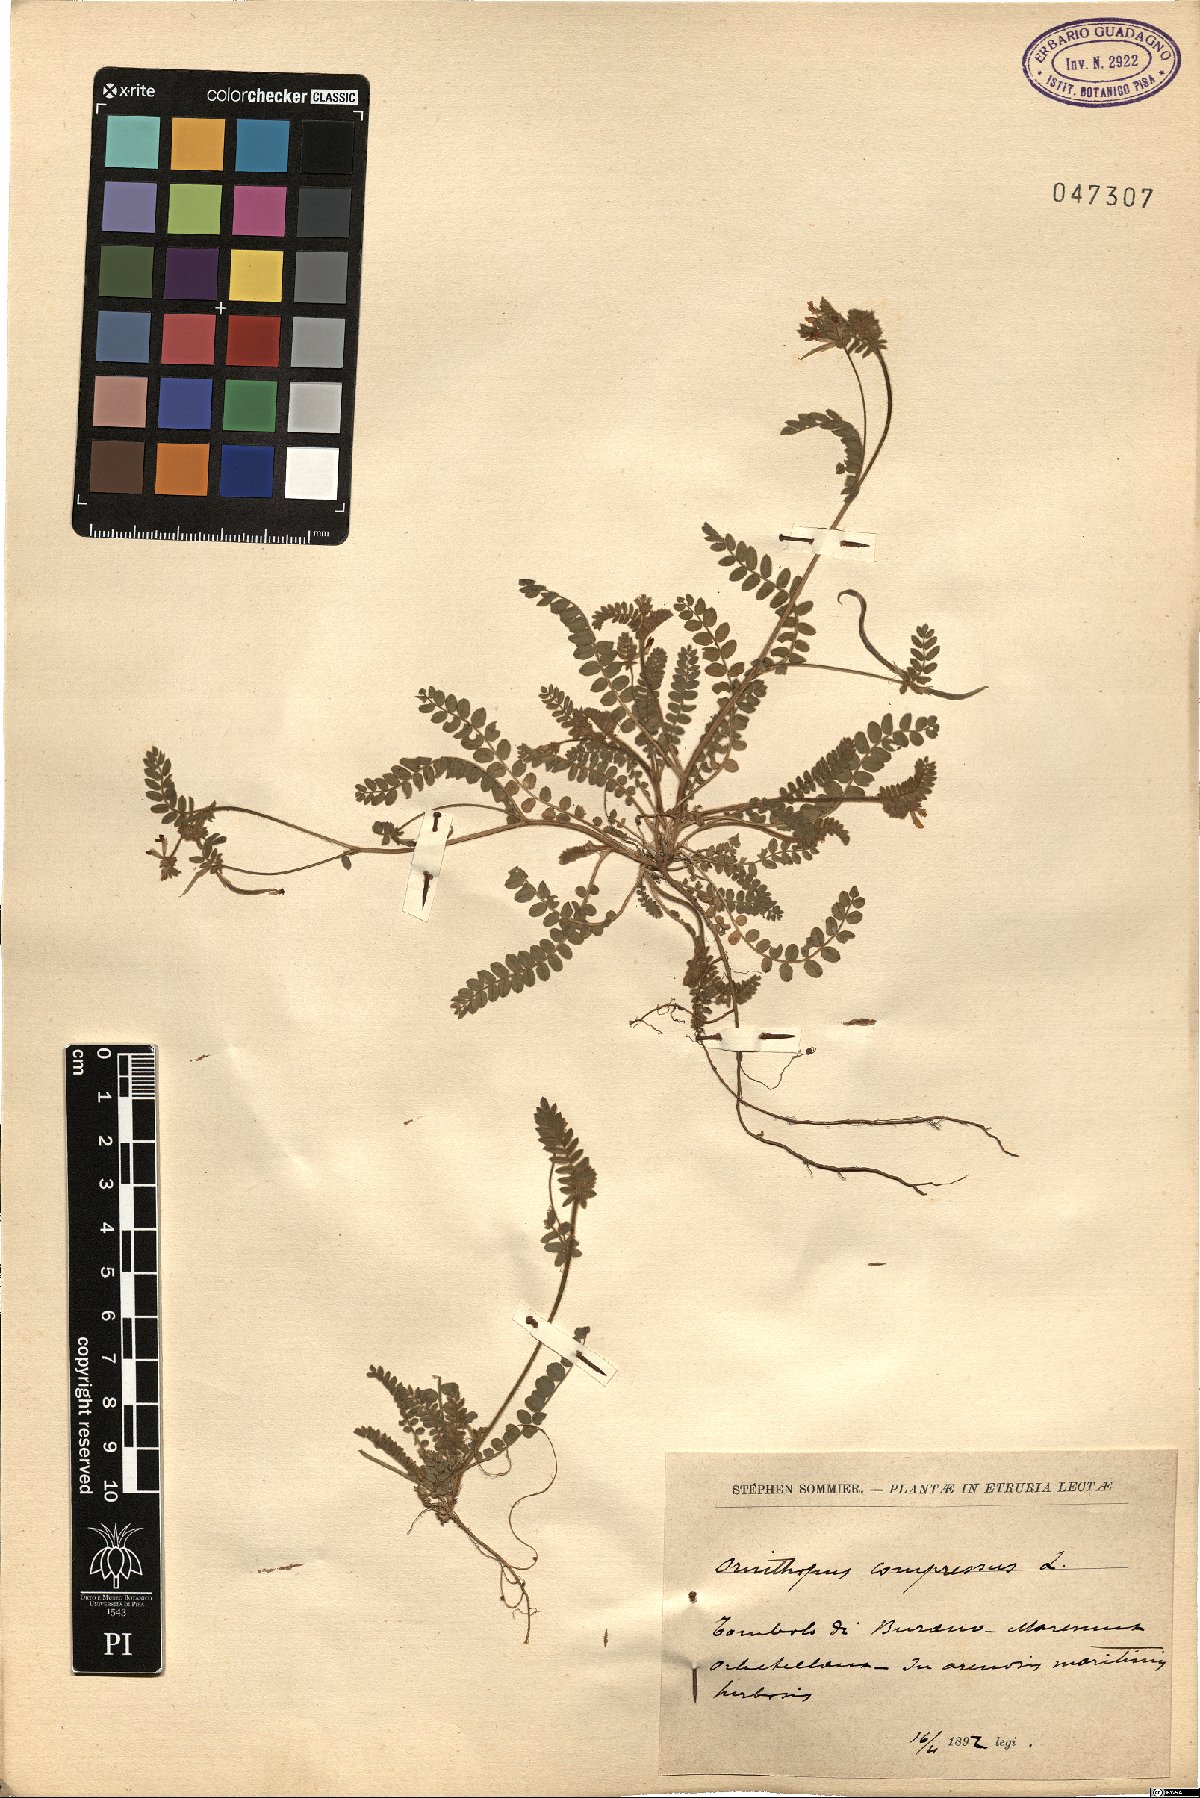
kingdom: Plantae
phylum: Tracheophyta
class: Magnoliopsida
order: Fabales
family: Fabaceae
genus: Ornithopus
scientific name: Ornithopus compressus
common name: Yellow serradella
